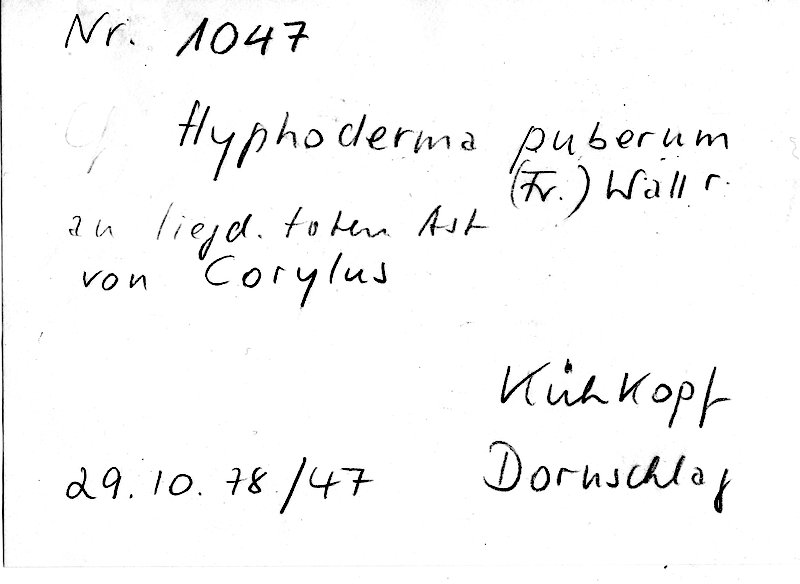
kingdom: Plantae
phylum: Tracheophyta
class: Magnoliopsida
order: Fagales
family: Betulaceae
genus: Corylus
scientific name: Corylus
